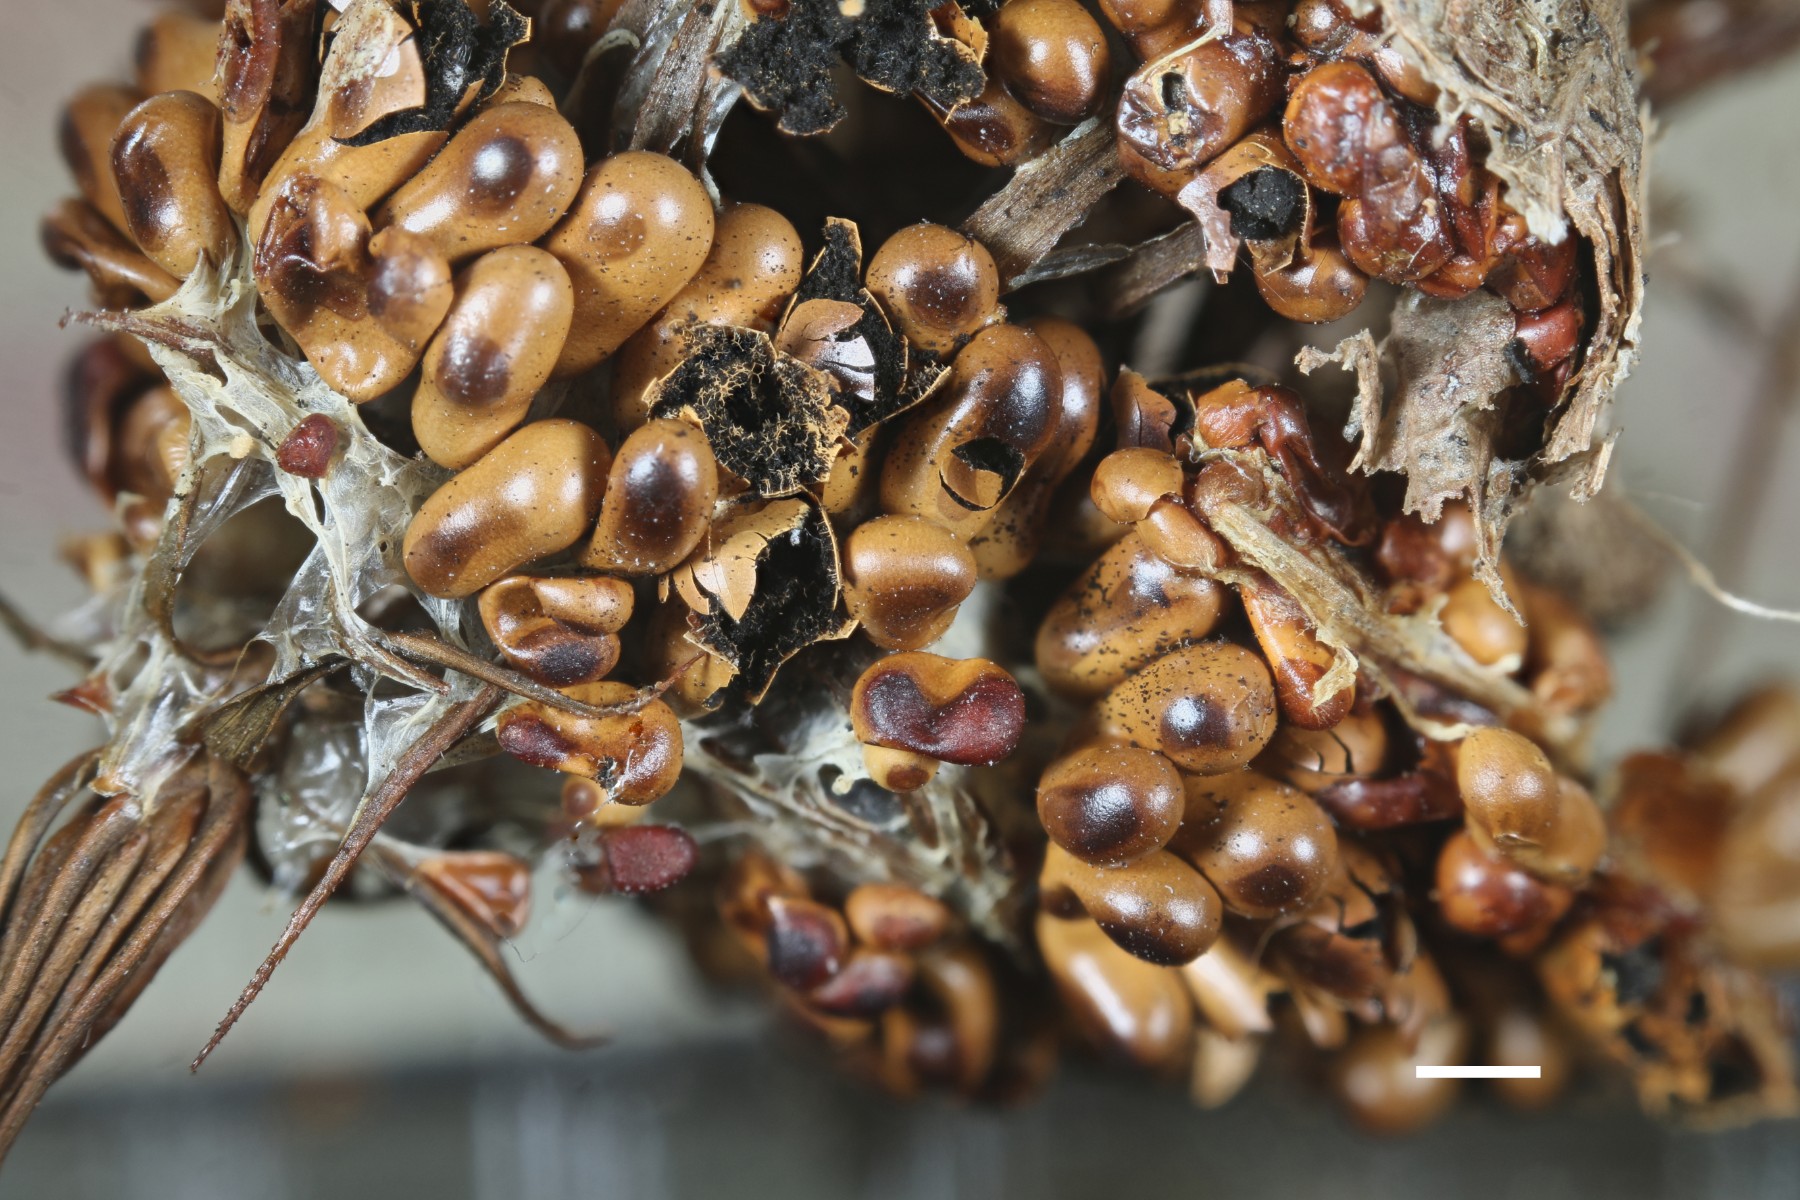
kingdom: Protozoa
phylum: Mycetozoa
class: Myxomycetes
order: Physarales
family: Physaraceae
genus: Leocarpus
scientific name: Leocarpus fragilis
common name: poleret glatfrø
